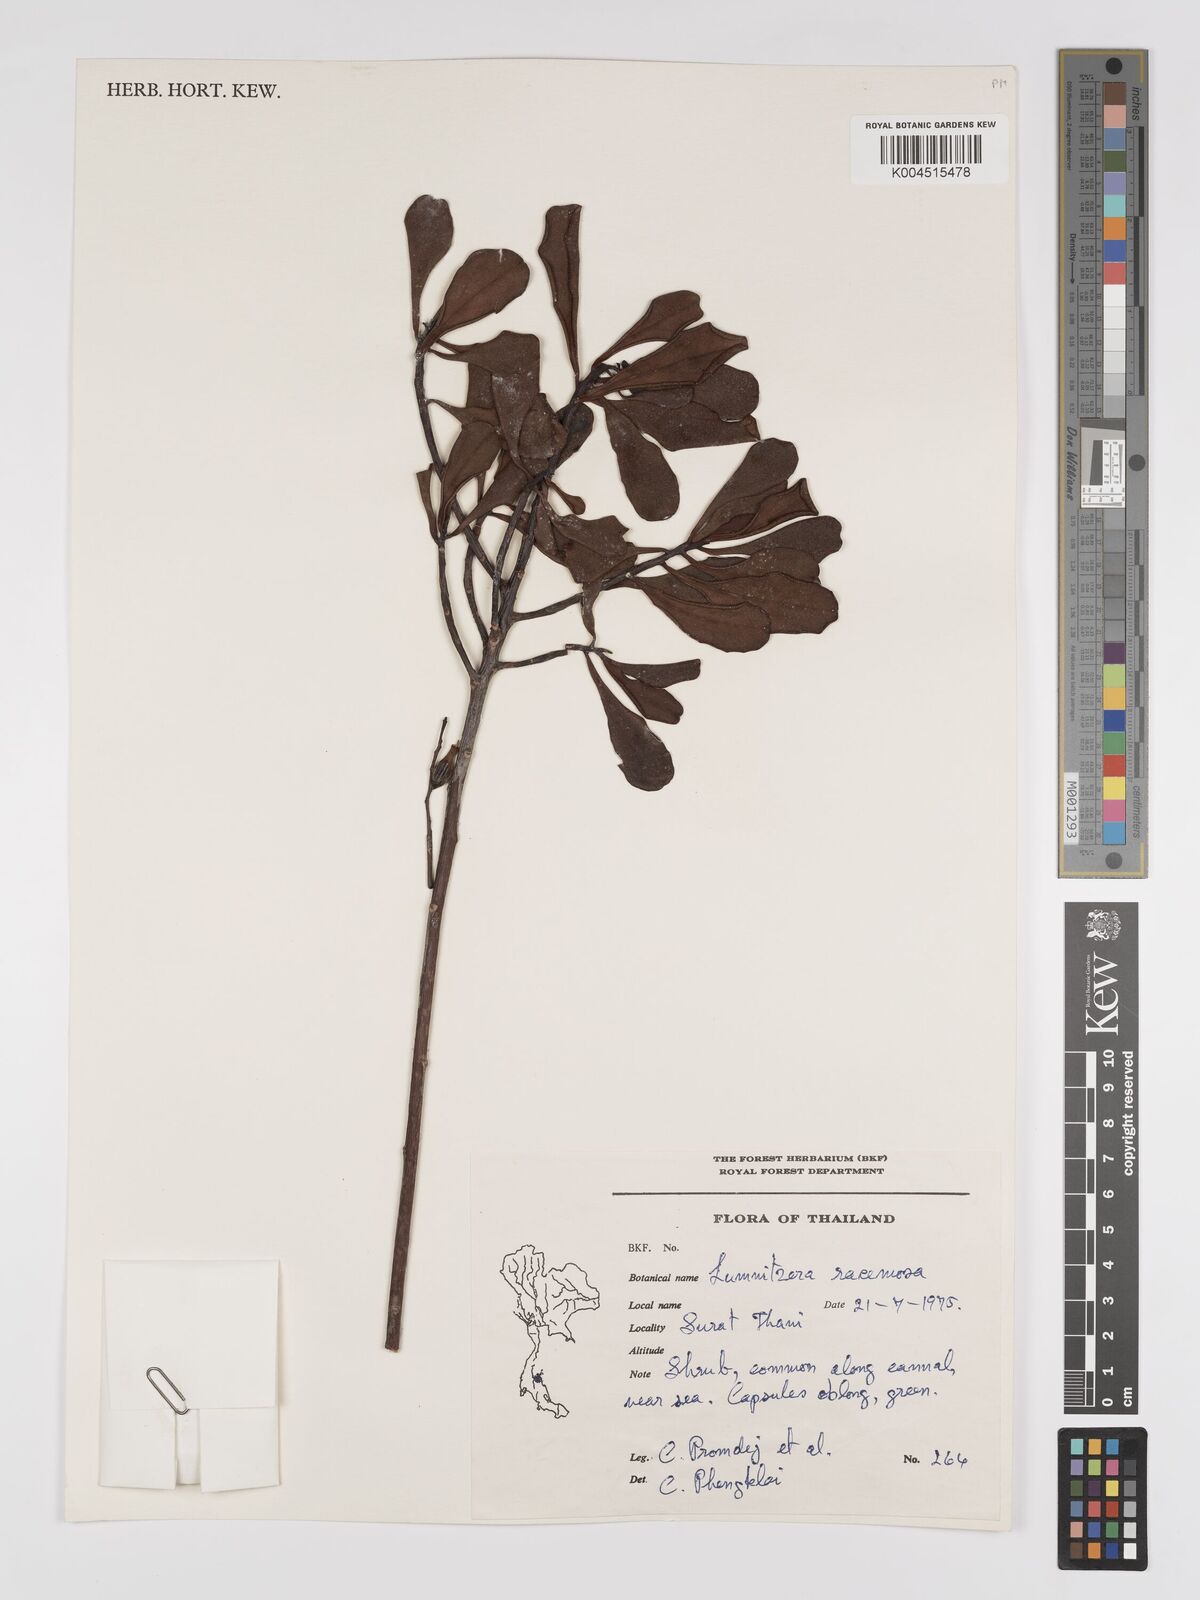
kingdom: Plantae
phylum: Tracheophyta
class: Magnoliopsida
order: Myrtales
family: Combretaceae
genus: Lumnitzera
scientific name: Lumnitzera racemosa
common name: White-flowered black mangrove
